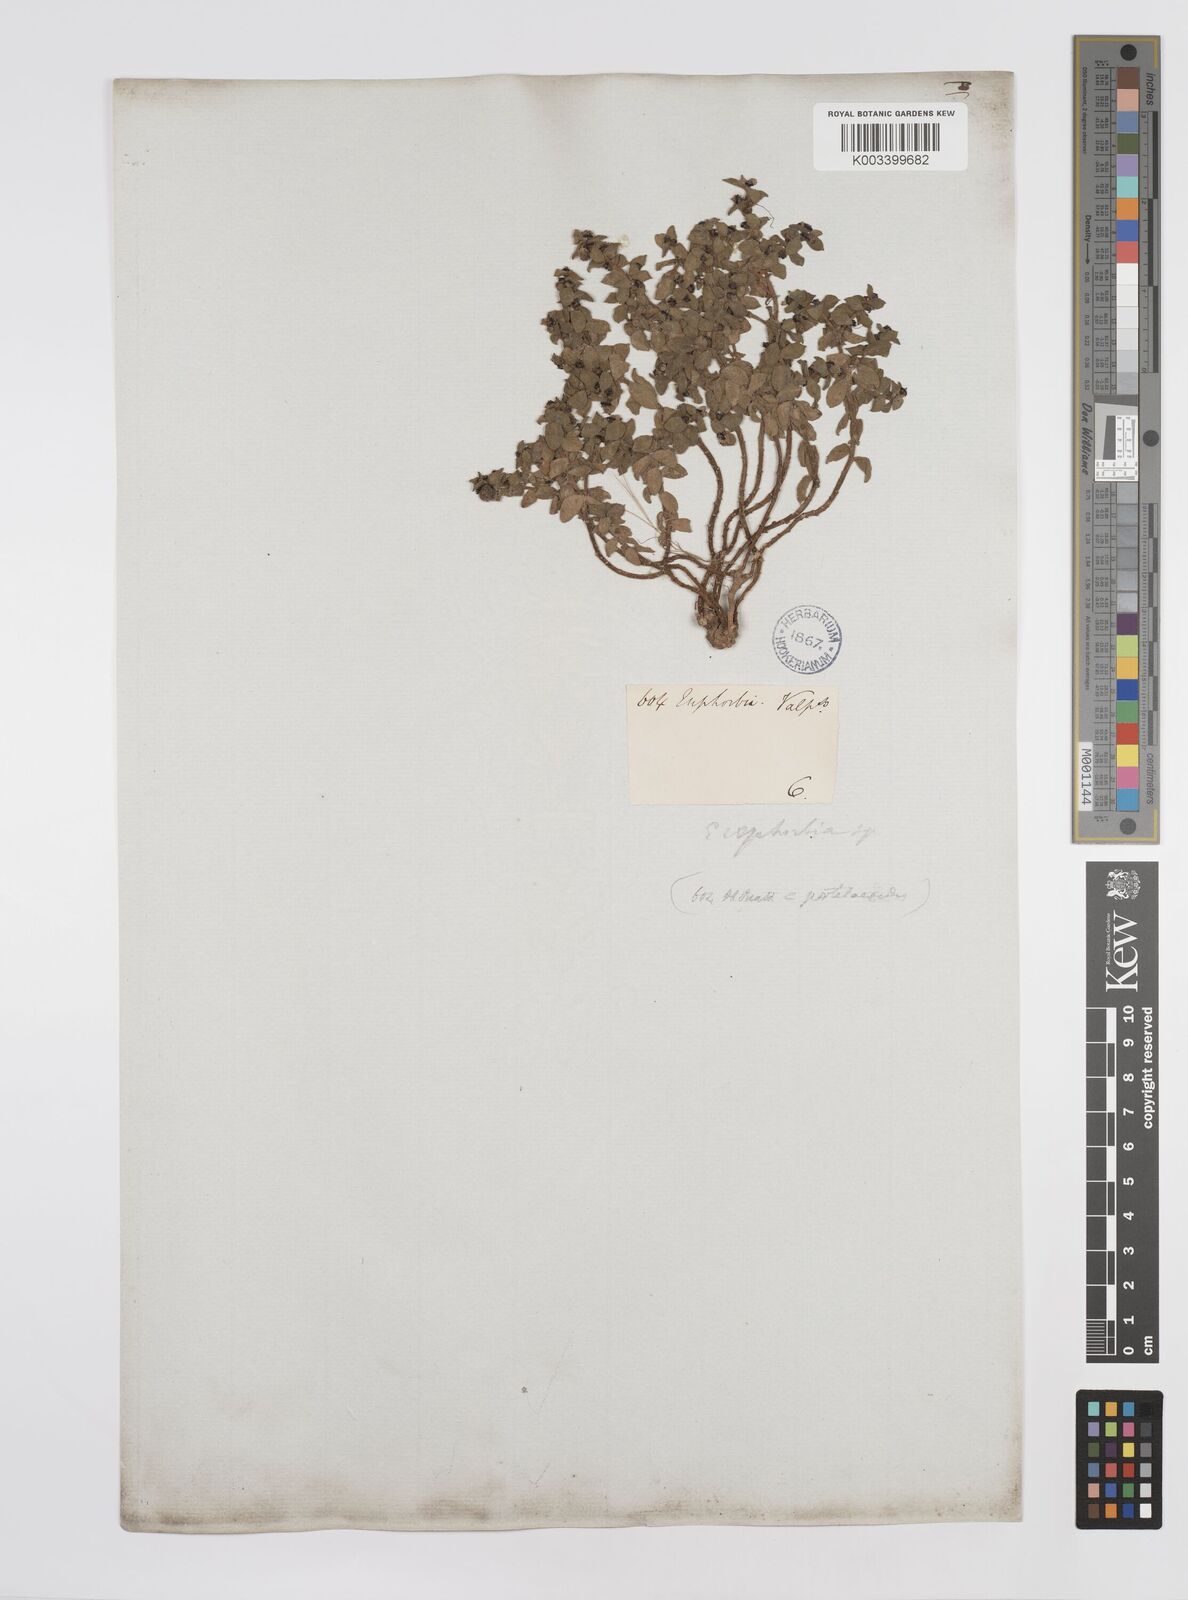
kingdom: Plantae
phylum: Tracheophyta
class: Magnoliopsida
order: Malpighiales
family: Euphorbiaceae
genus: Euphorbia
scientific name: Euphorbia
